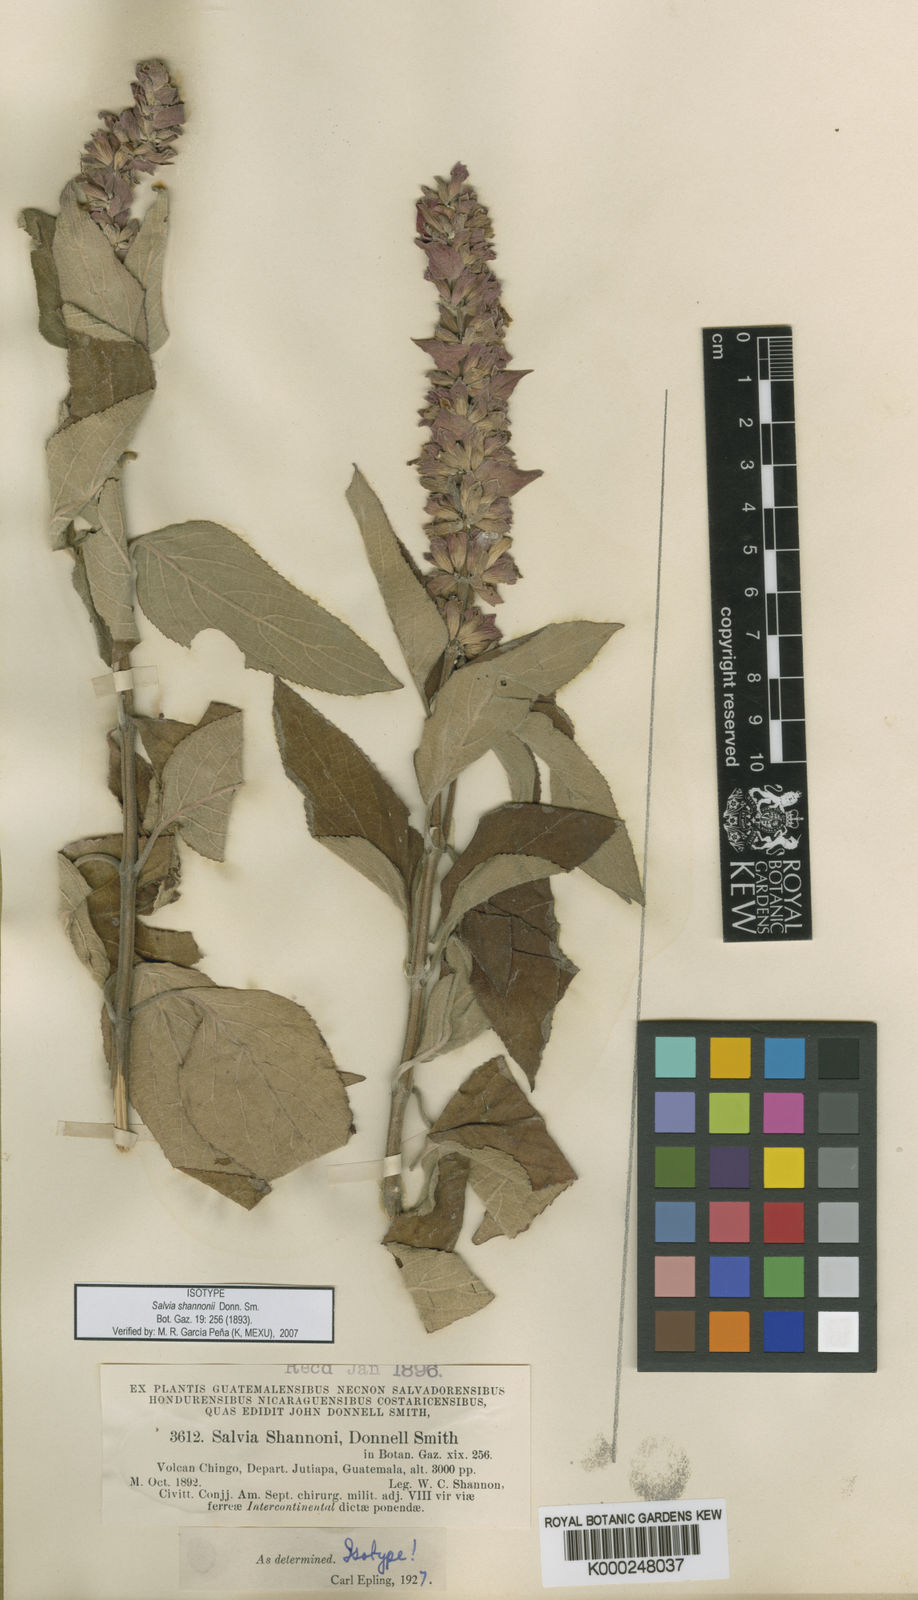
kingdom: Plantae
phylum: Tracheophyta
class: Magnoliopsida
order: Lamiales
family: Lamiaceae
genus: Salvia
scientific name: Salvia shannonii
